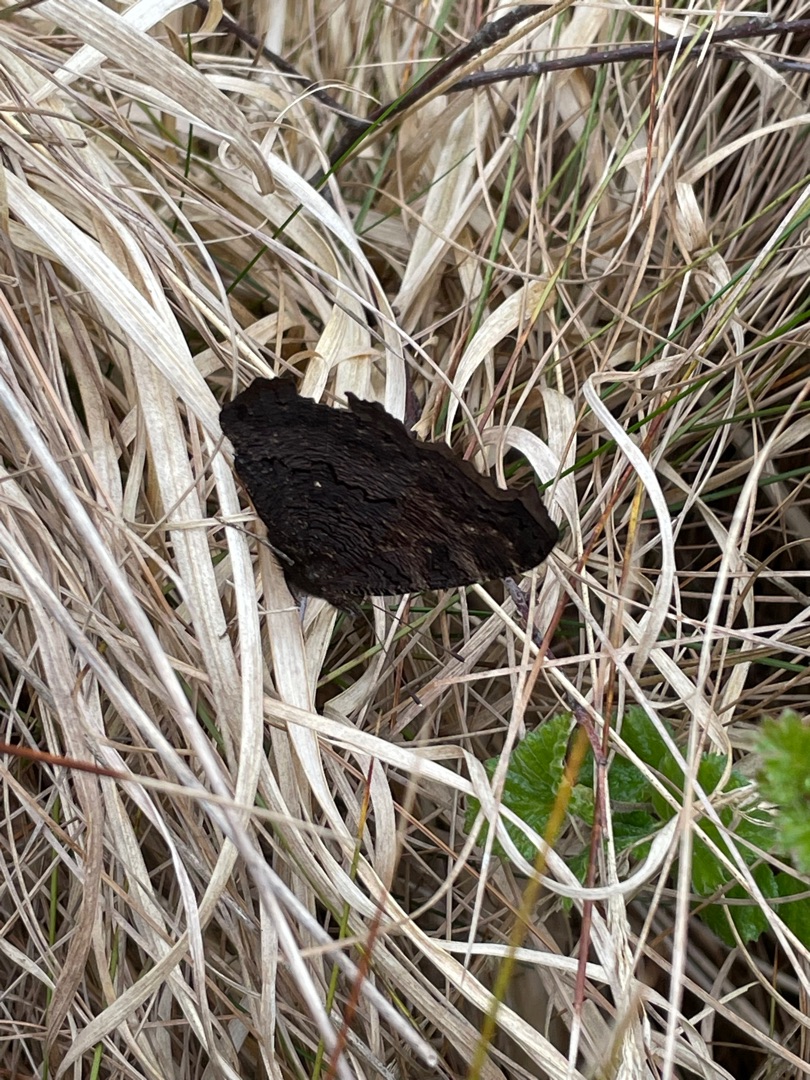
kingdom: Animalia
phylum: Arthropoda
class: Insecta
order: Lepidoptera
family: Nymphalidae
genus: Aglais
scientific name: Aglais io
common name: Dagpåfugleøje
